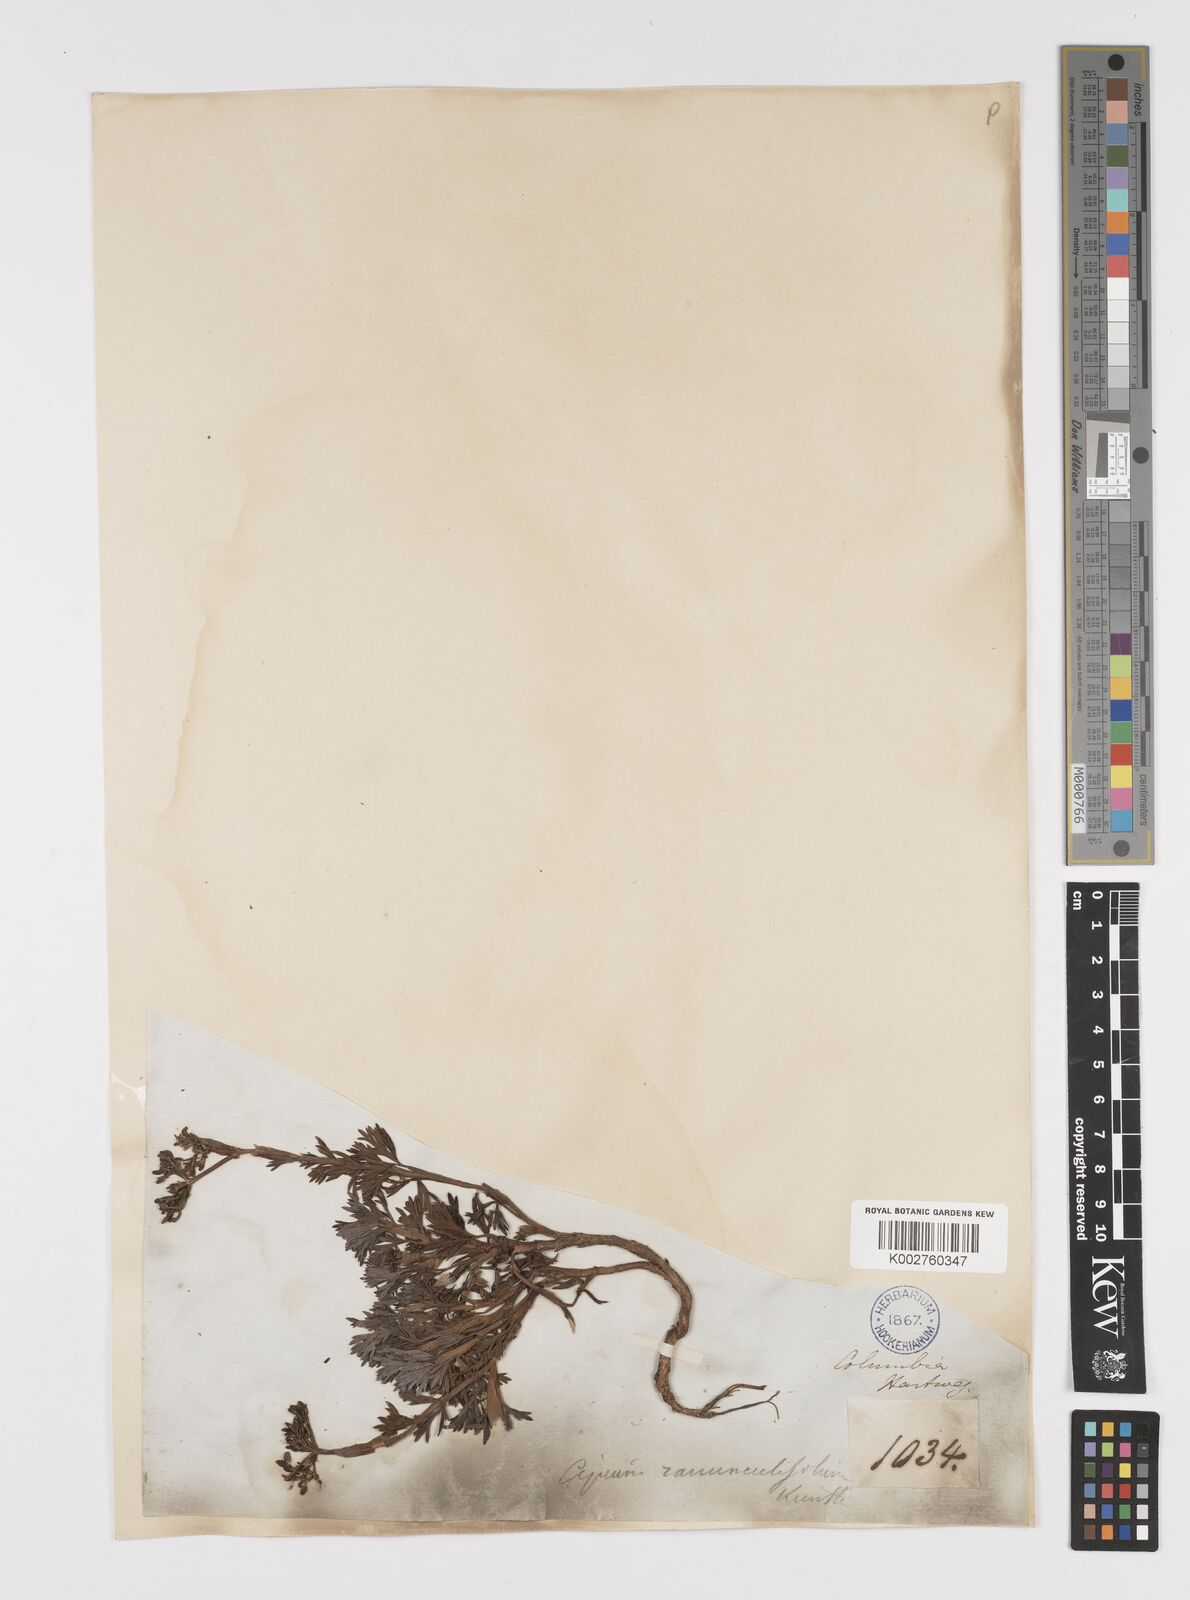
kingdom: Plantae
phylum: Tracheophyta
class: Magnoliopsida
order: Apiales
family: Apiaceae
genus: Niphogeton
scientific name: Niphogeton glaucescens
